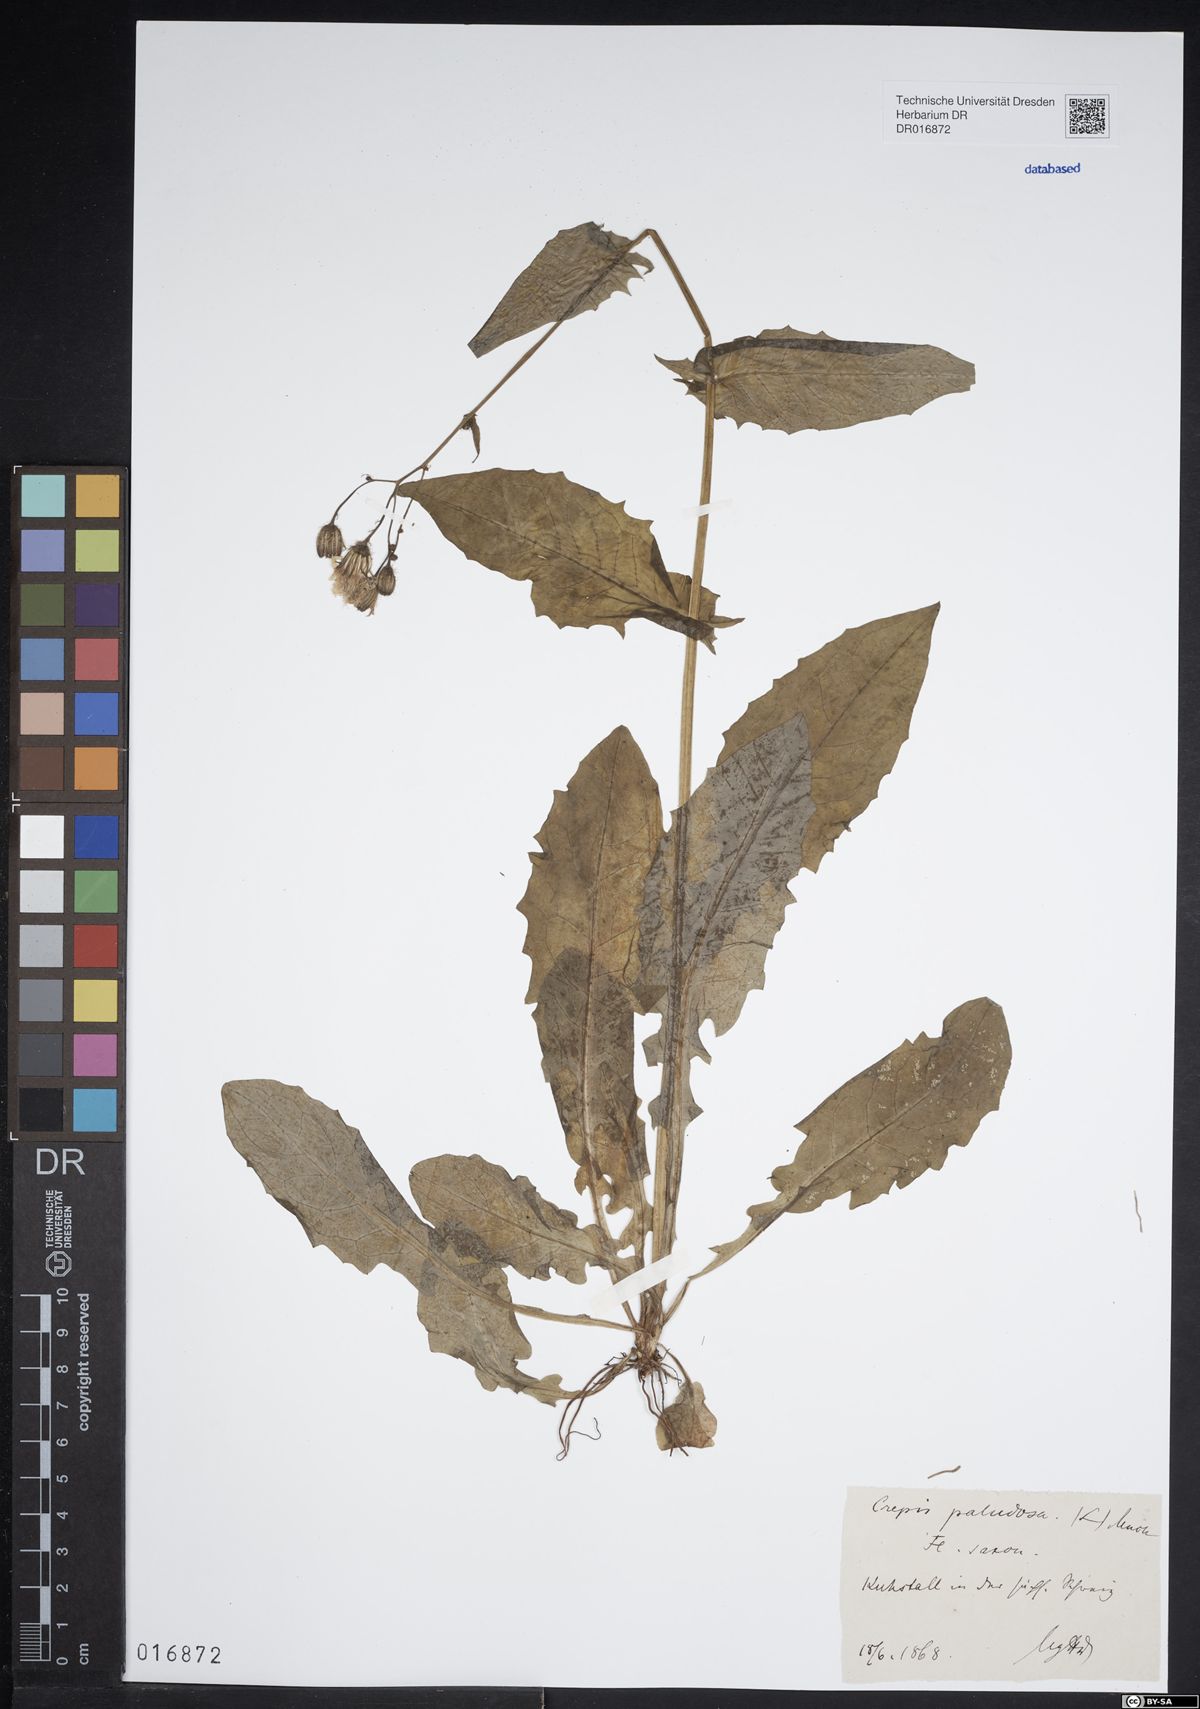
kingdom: Plantae
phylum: Tracheophyta
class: Magnoliopsida
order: Asterales
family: Asteraceae
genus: Crepis
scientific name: Crepis paludosa
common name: Marsh hawk's-beard
